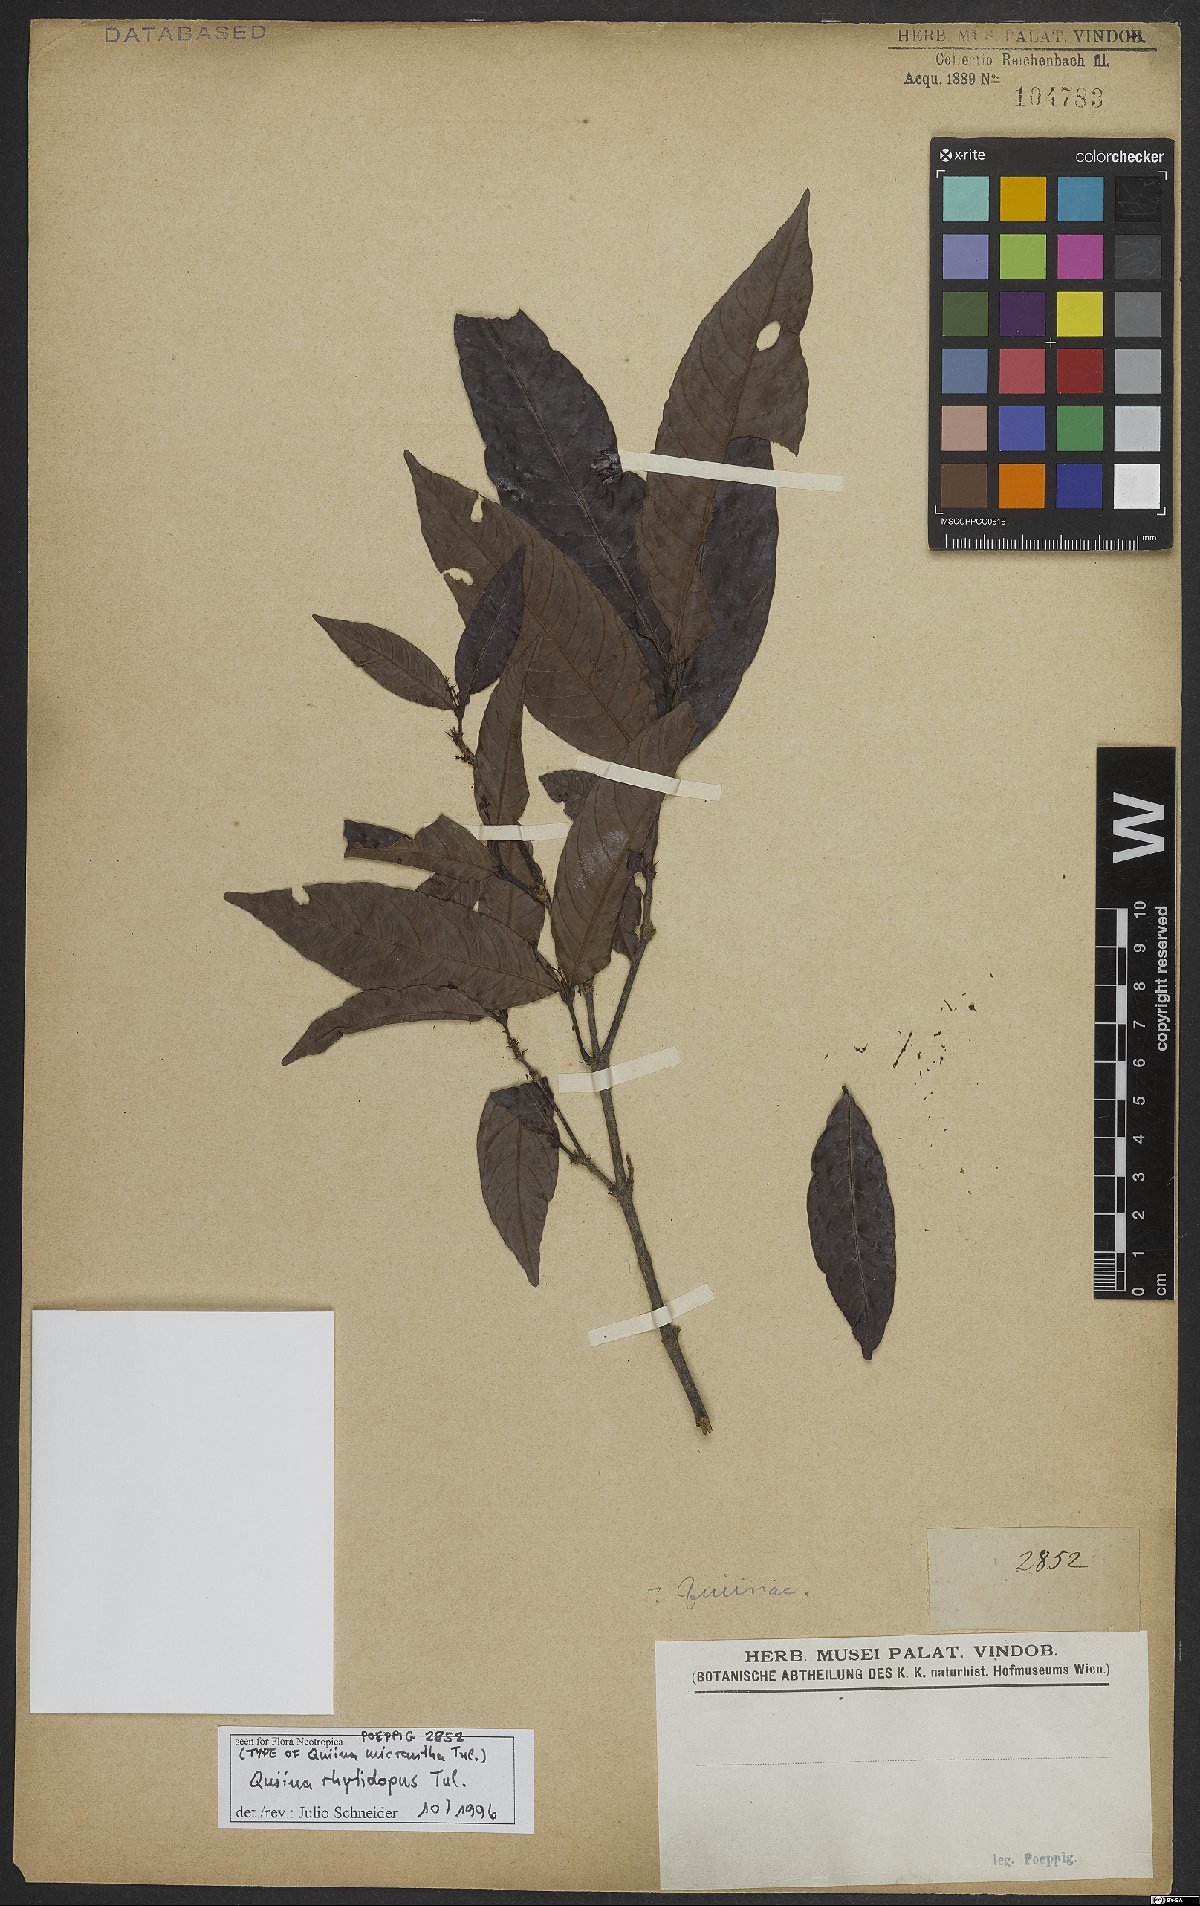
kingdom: Plantae
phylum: Tracheophyta
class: Magnoliopsida
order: Malpighiales
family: Quiinaceae
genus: Quiina
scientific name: Quiina rhytidopus
